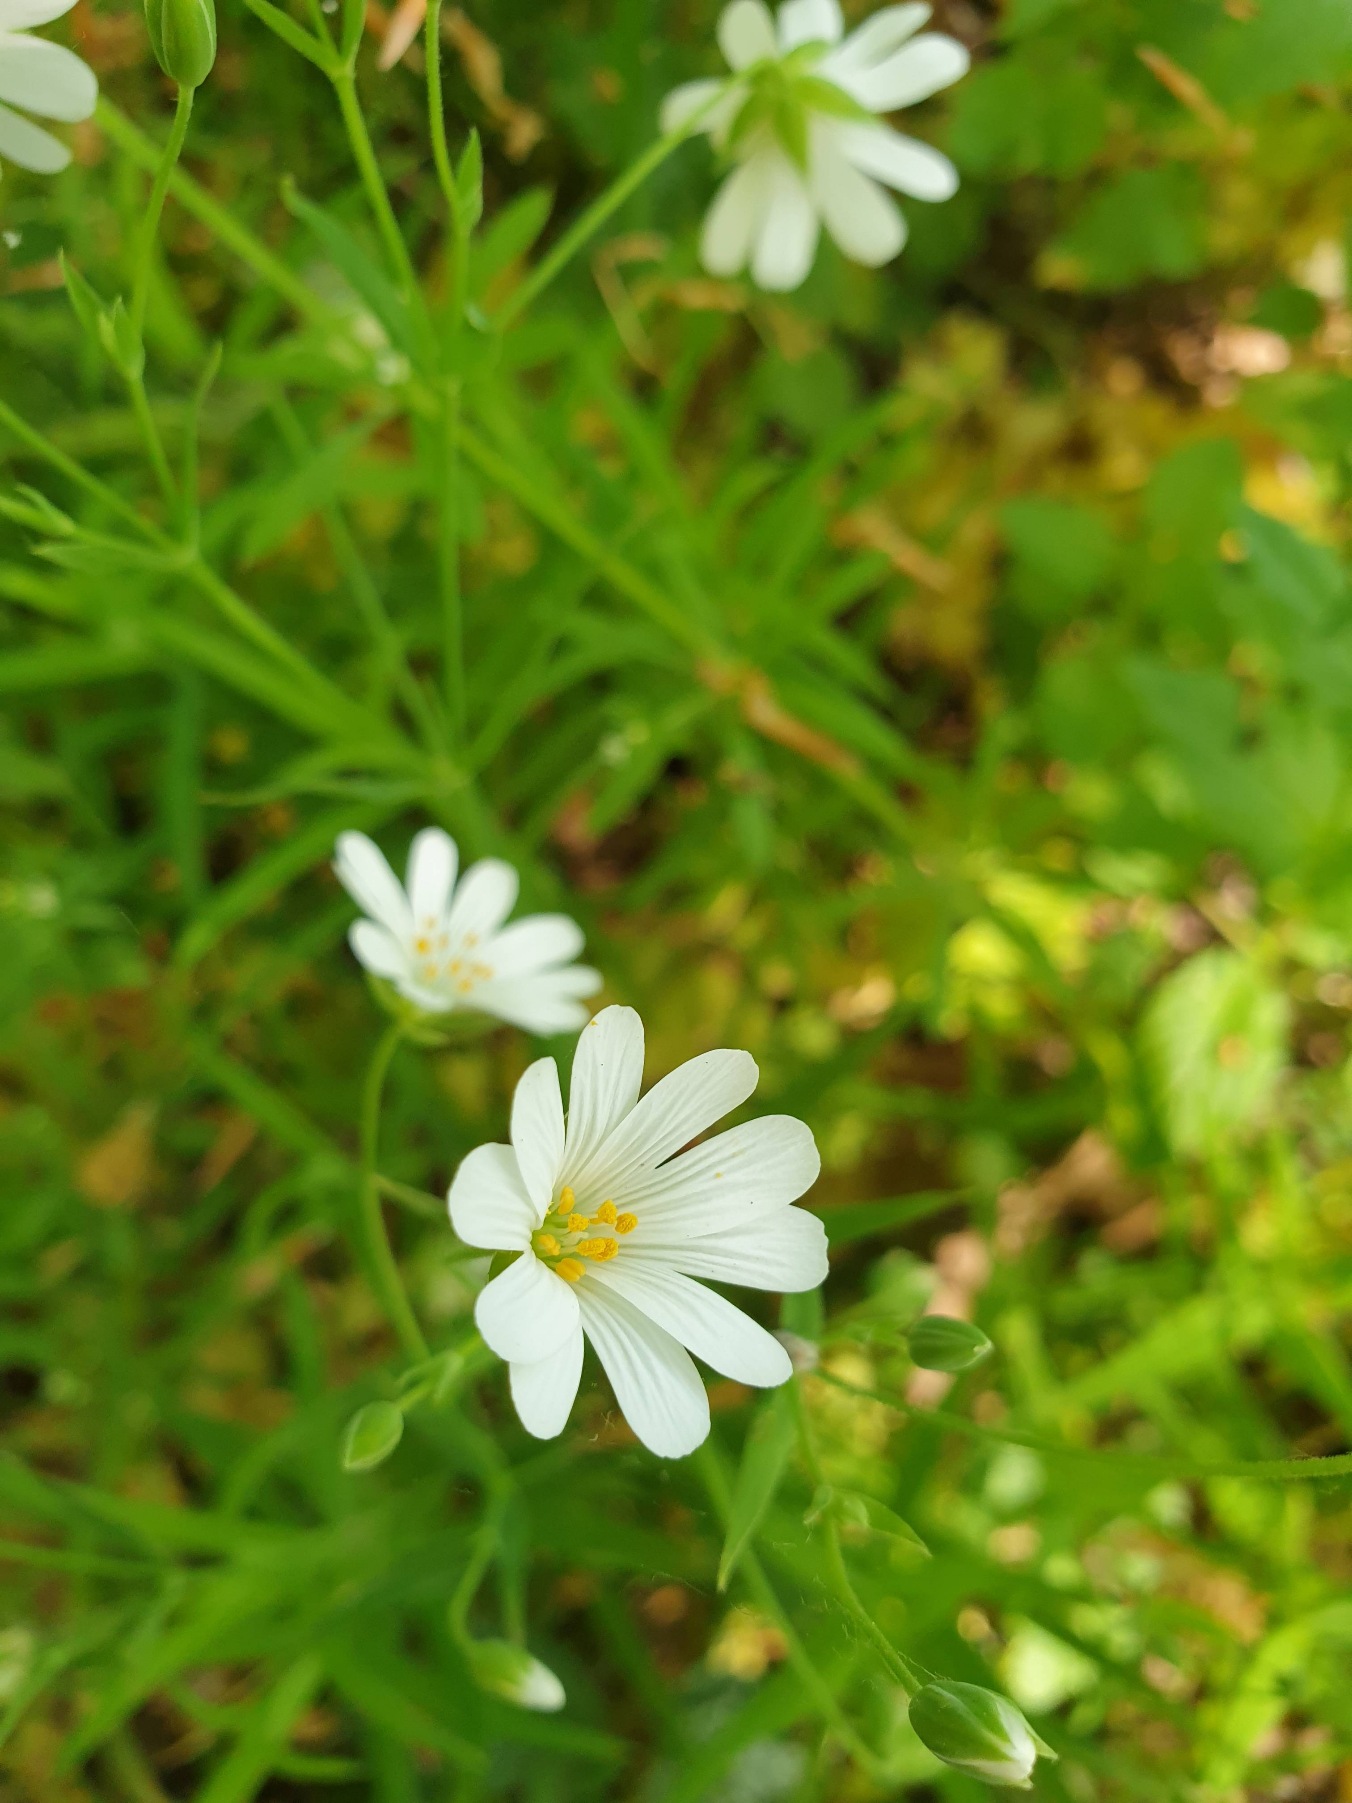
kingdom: Plantae
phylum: Tracheophyta
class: Magnoliopsida
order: Caryophyllales
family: Caryophyllaceae
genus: Rabelera
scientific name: Rabelera holostea
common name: Stor fladstjerne
